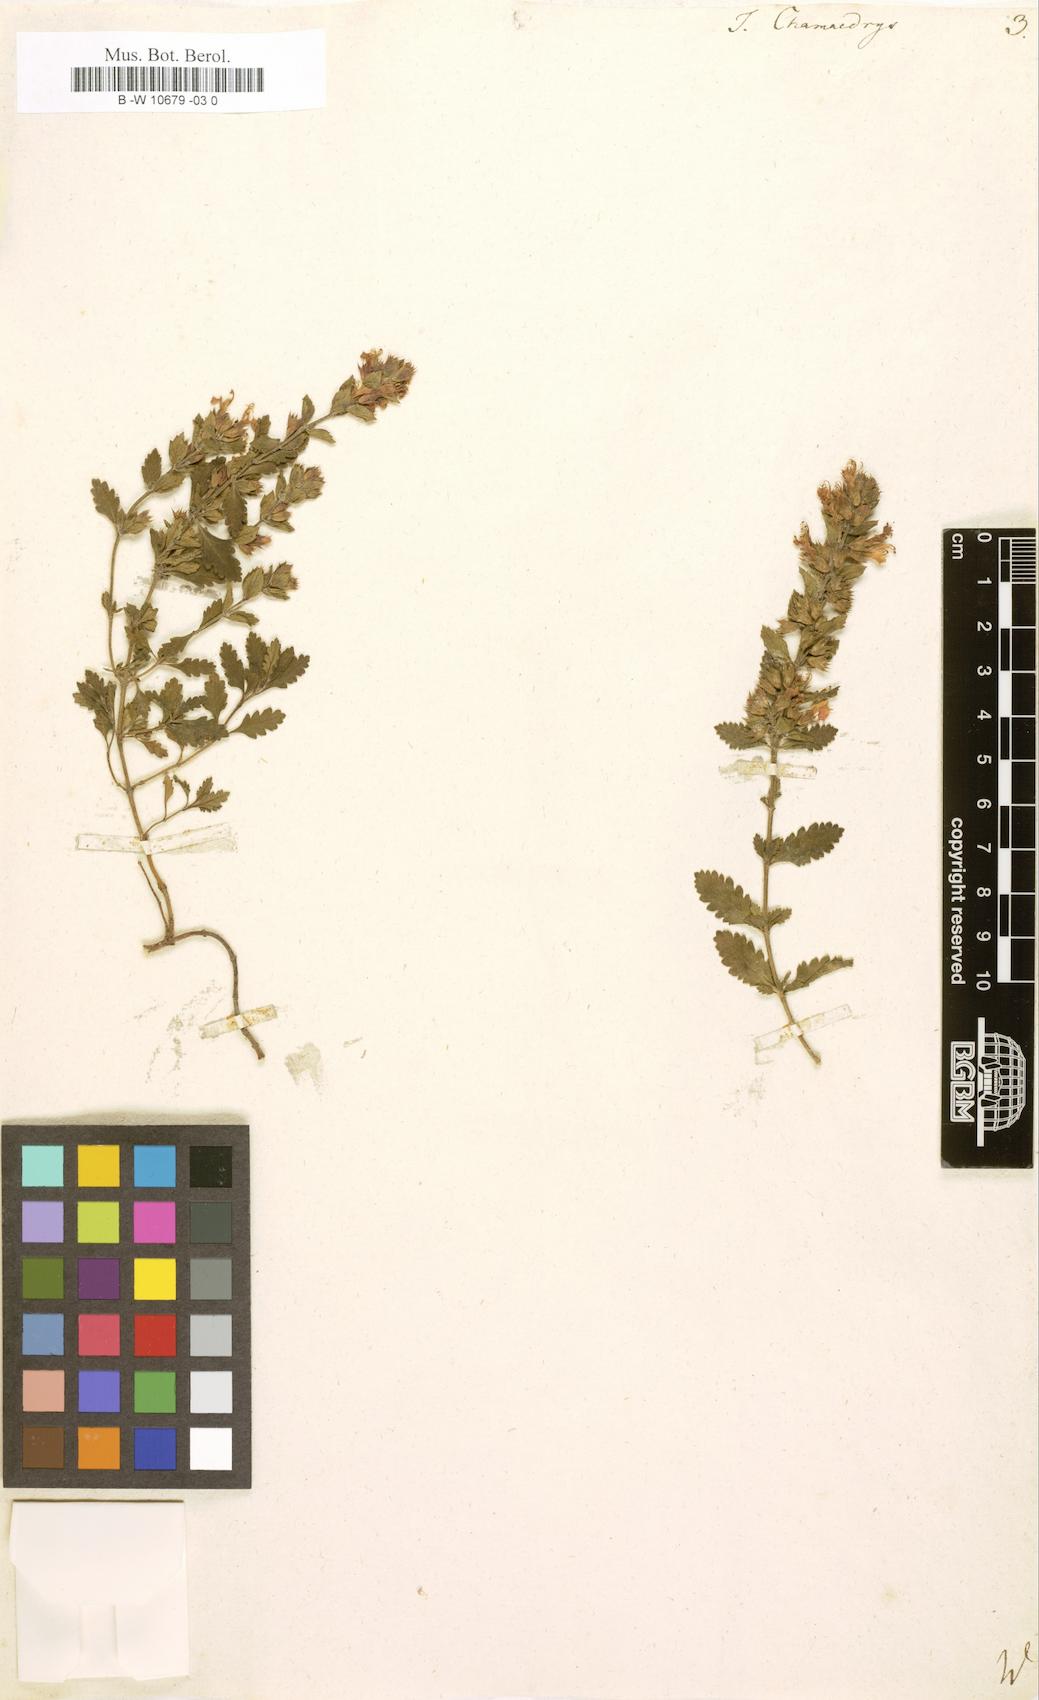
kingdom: Plantae
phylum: Tracheophyta
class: Magnoliopsida
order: Lamiales
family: Lamiaceae
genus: Teucrium
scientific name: Teucrium chamaedrys
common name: Wall germander
